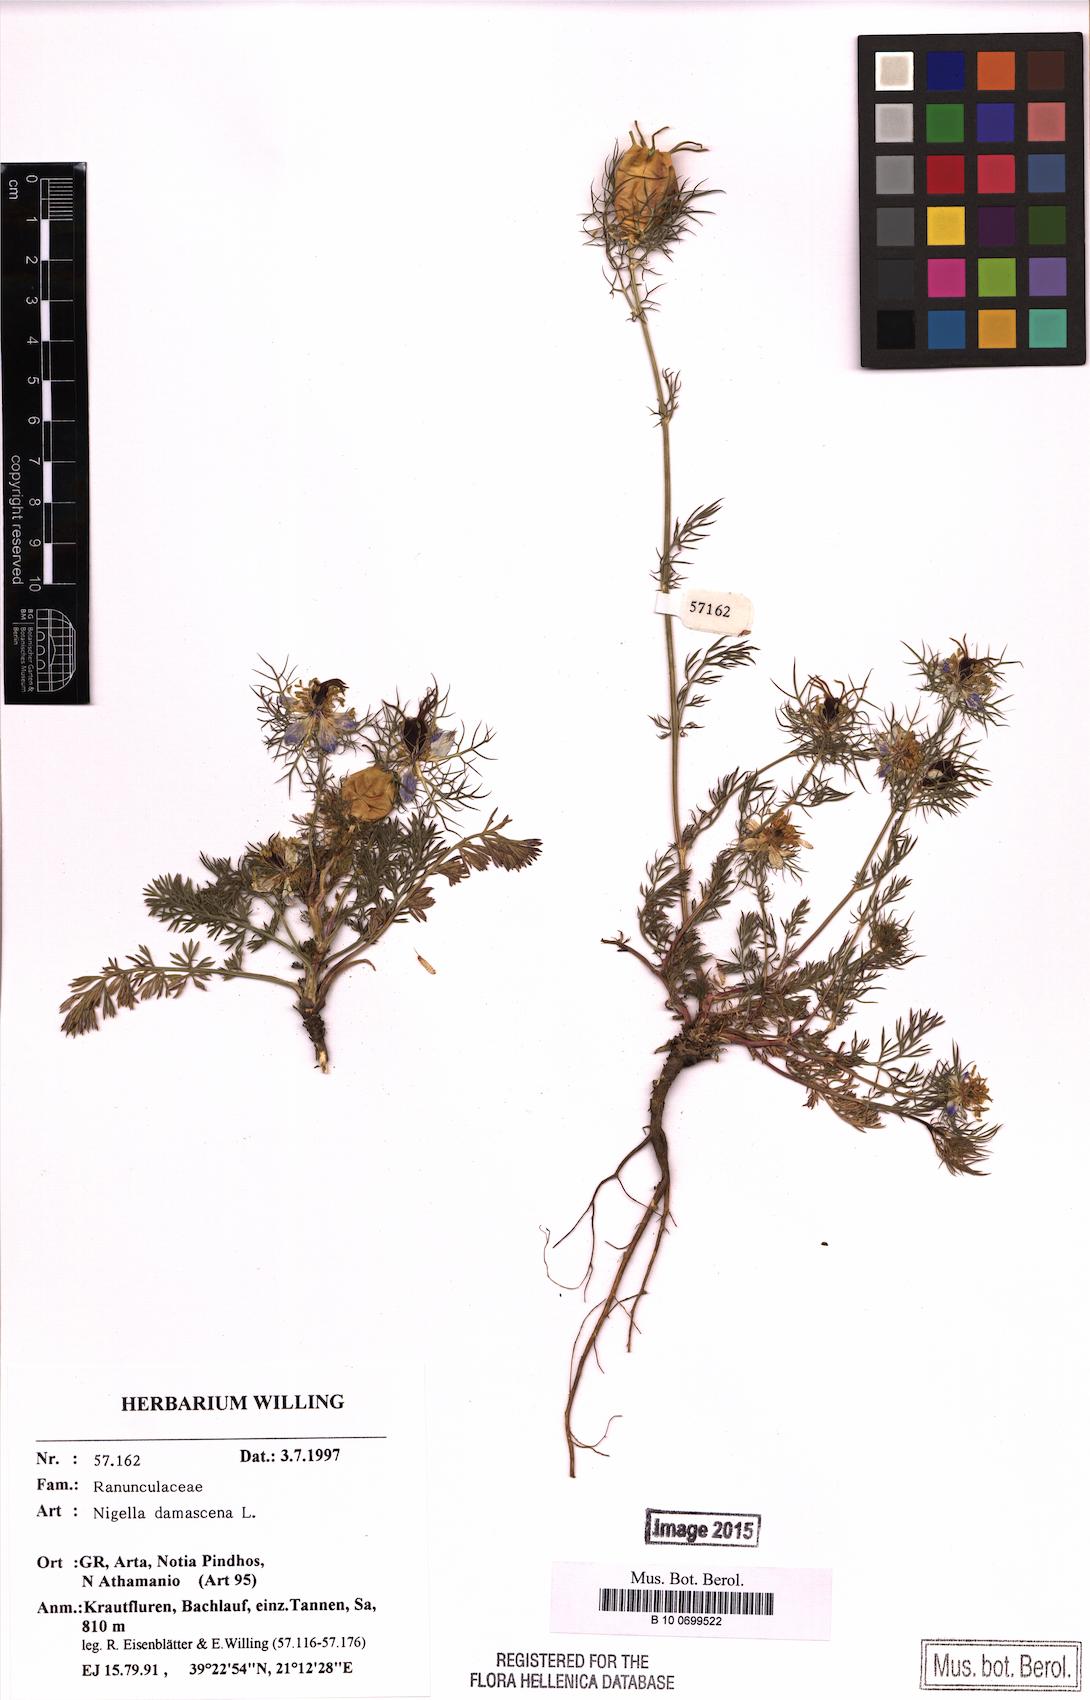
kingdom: Plantae
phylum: Tracheophyta
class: Magnoliopsida
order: Ranunculales
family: Ranunculaceae
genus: Nigella
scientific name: Nigella damascena
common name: Love-in-a-mist
